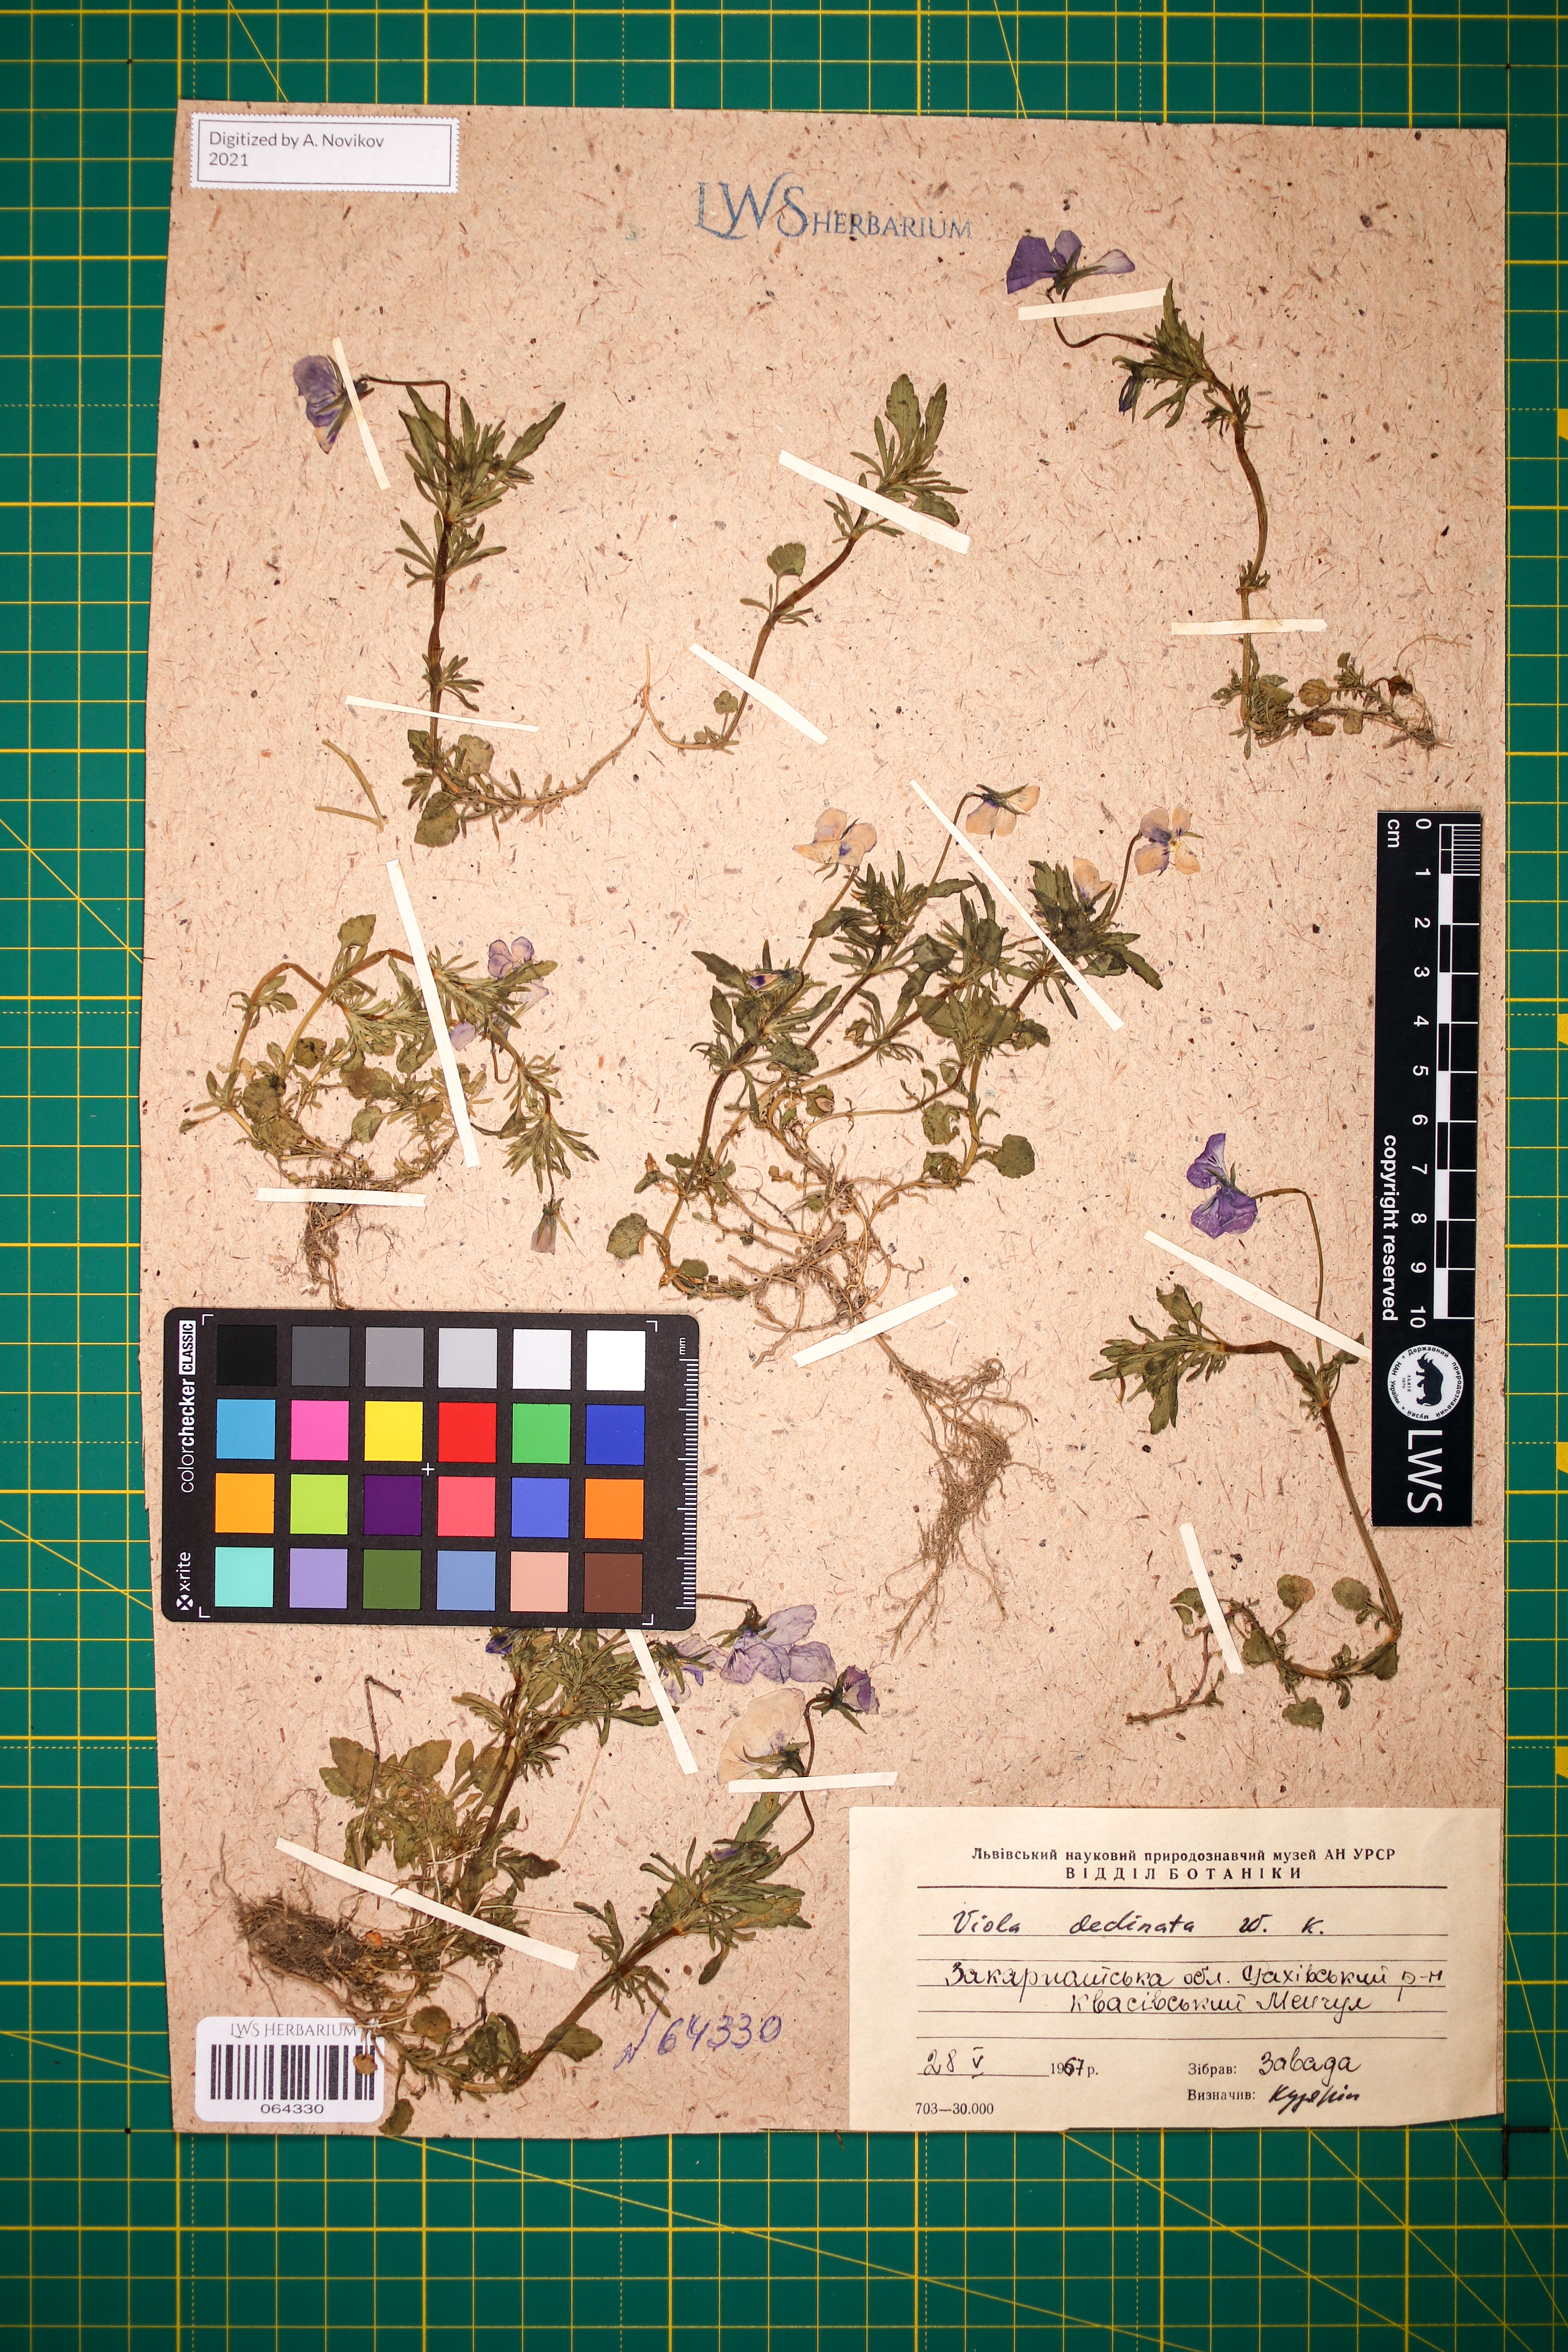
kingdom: Plantae
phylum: Tracheophyta
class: Magnoliopsida
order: Malpighiales
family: Violaceae
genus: Viola
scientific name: Viola declinata
